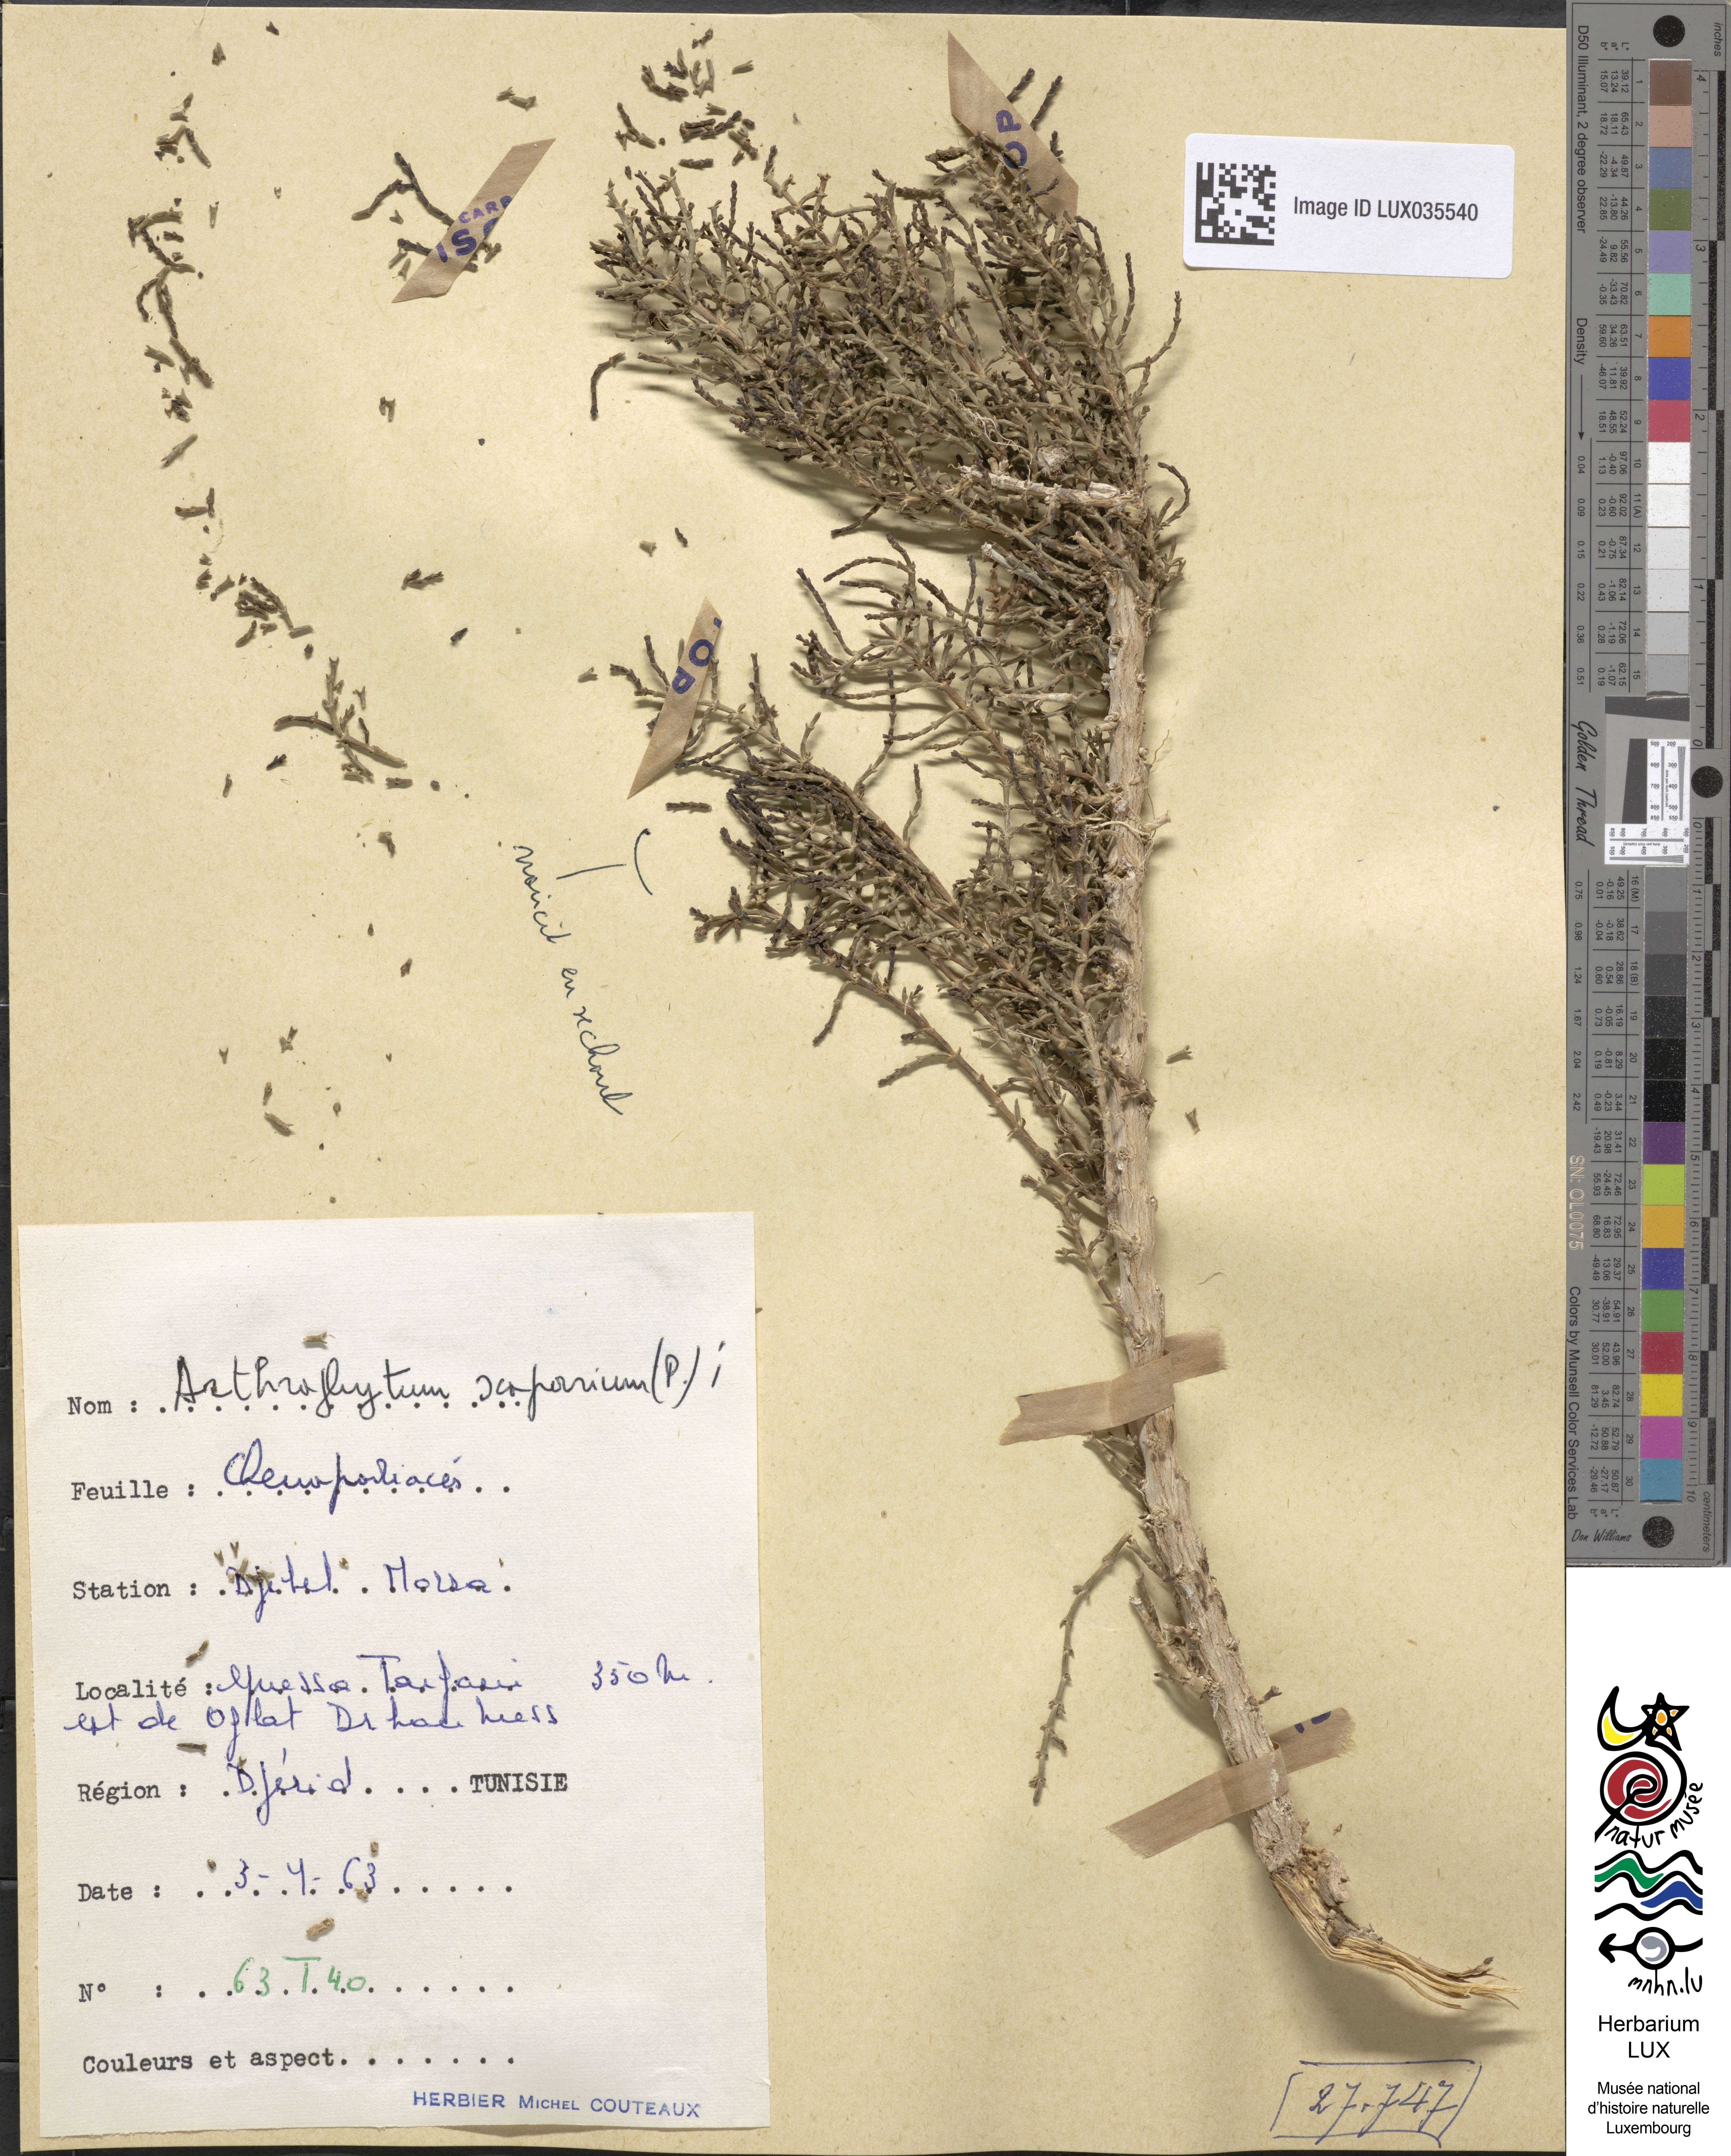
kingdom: Plantae
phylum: Tracheophyta
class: Magnoliopsida
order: Caryophyllales
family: Amaranthaceae
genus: Haloxylon
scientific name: Haloxylon scoparium
